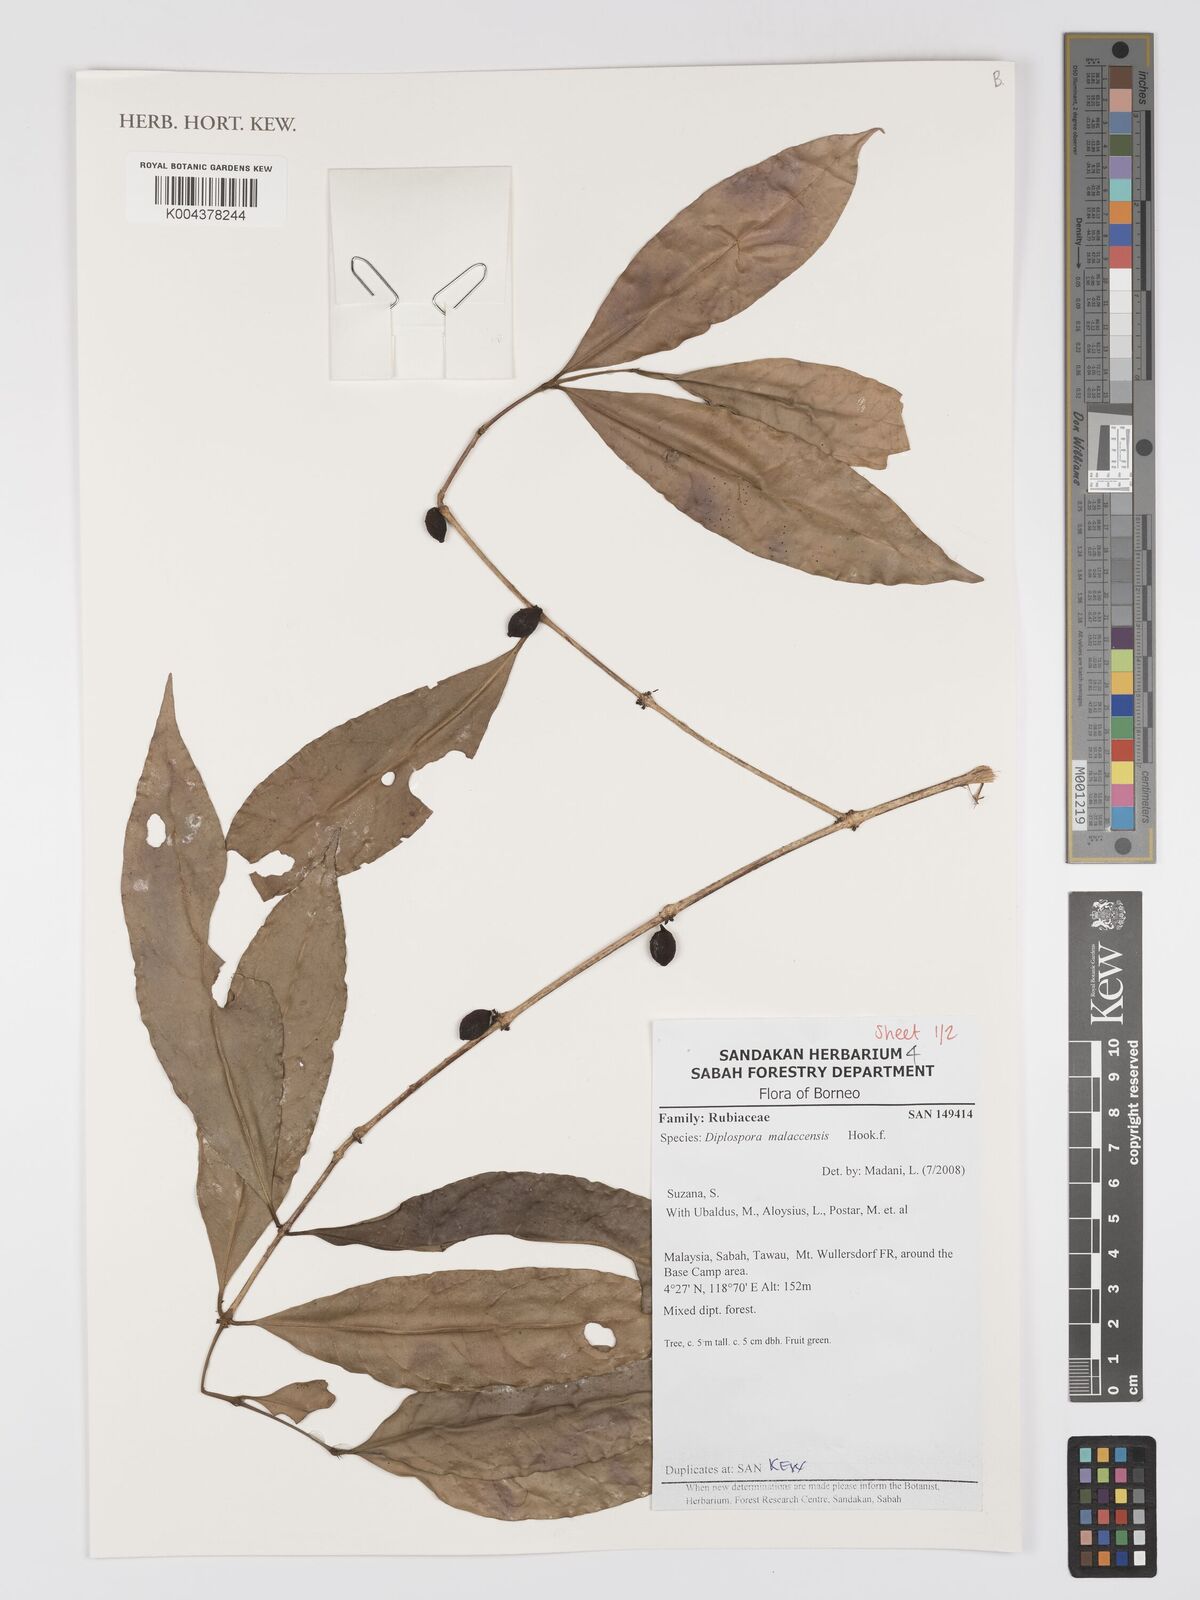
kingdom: Plantae
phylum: Tracheophyta
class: Magnoliopsida
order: Gentianales
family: Rubiaceae
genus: Discospermum
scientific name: Discospermum malaccense
